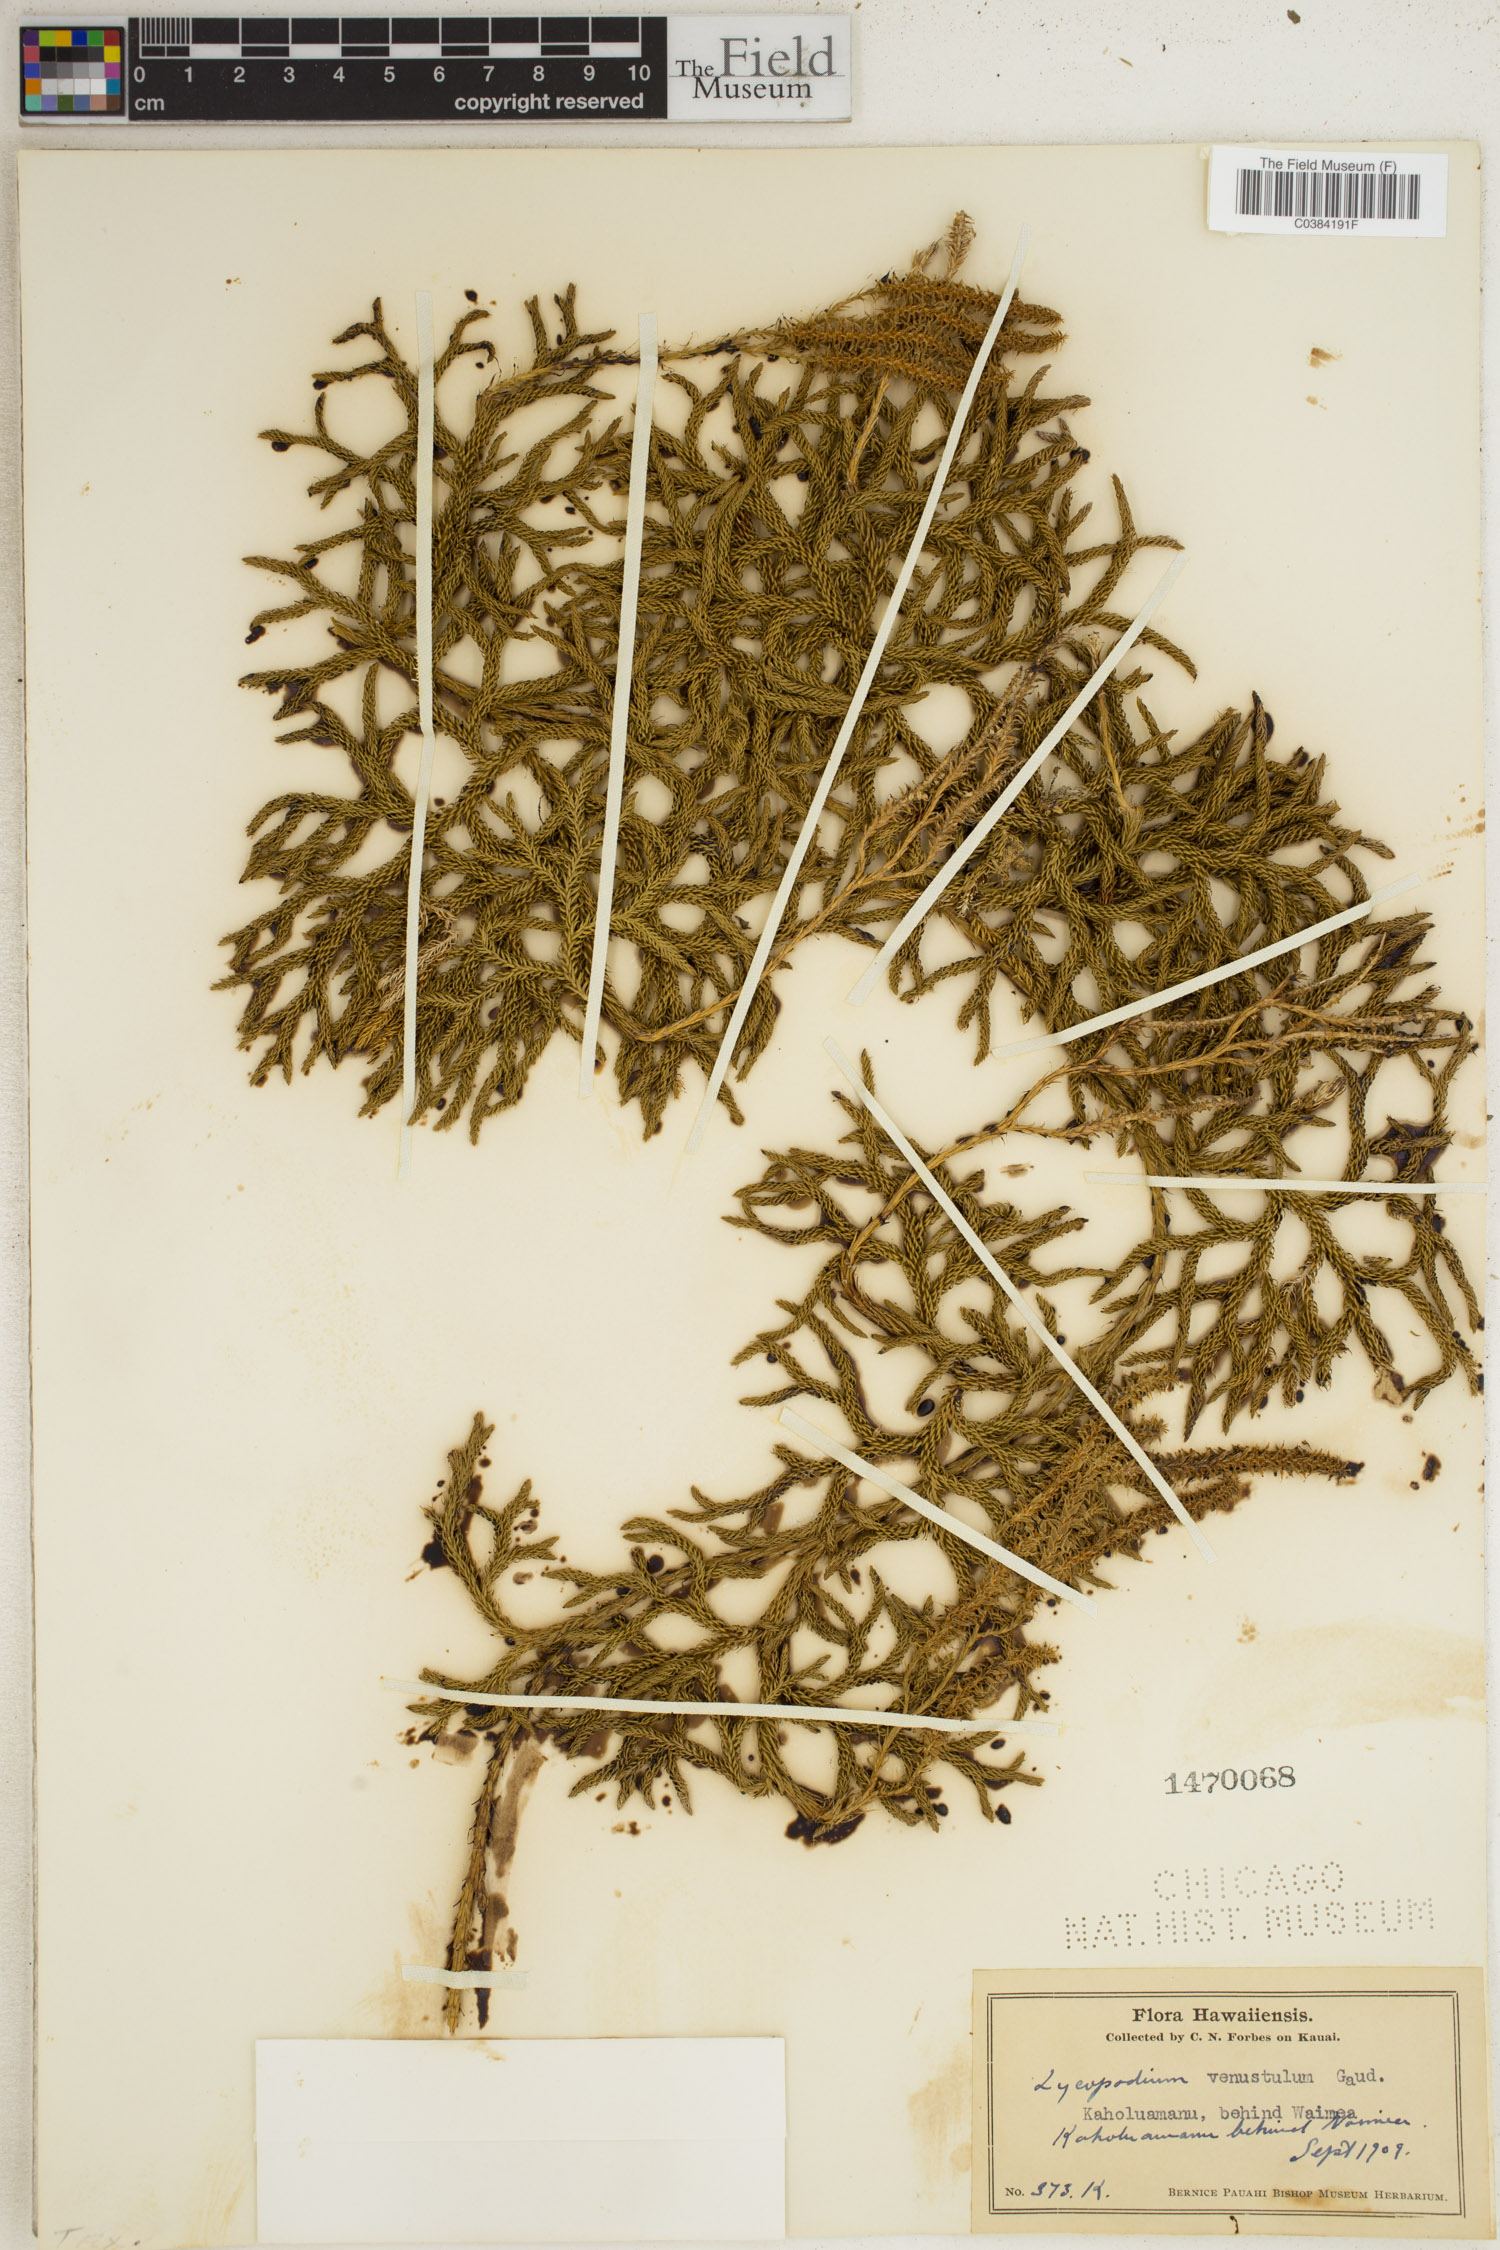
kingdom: Plantae
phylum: Tracheophyta
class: Lycopodiopsida
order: Lycopodiales
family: Lycopodiaceae
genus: Lycopodium
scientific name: Lycopodium venustulum
